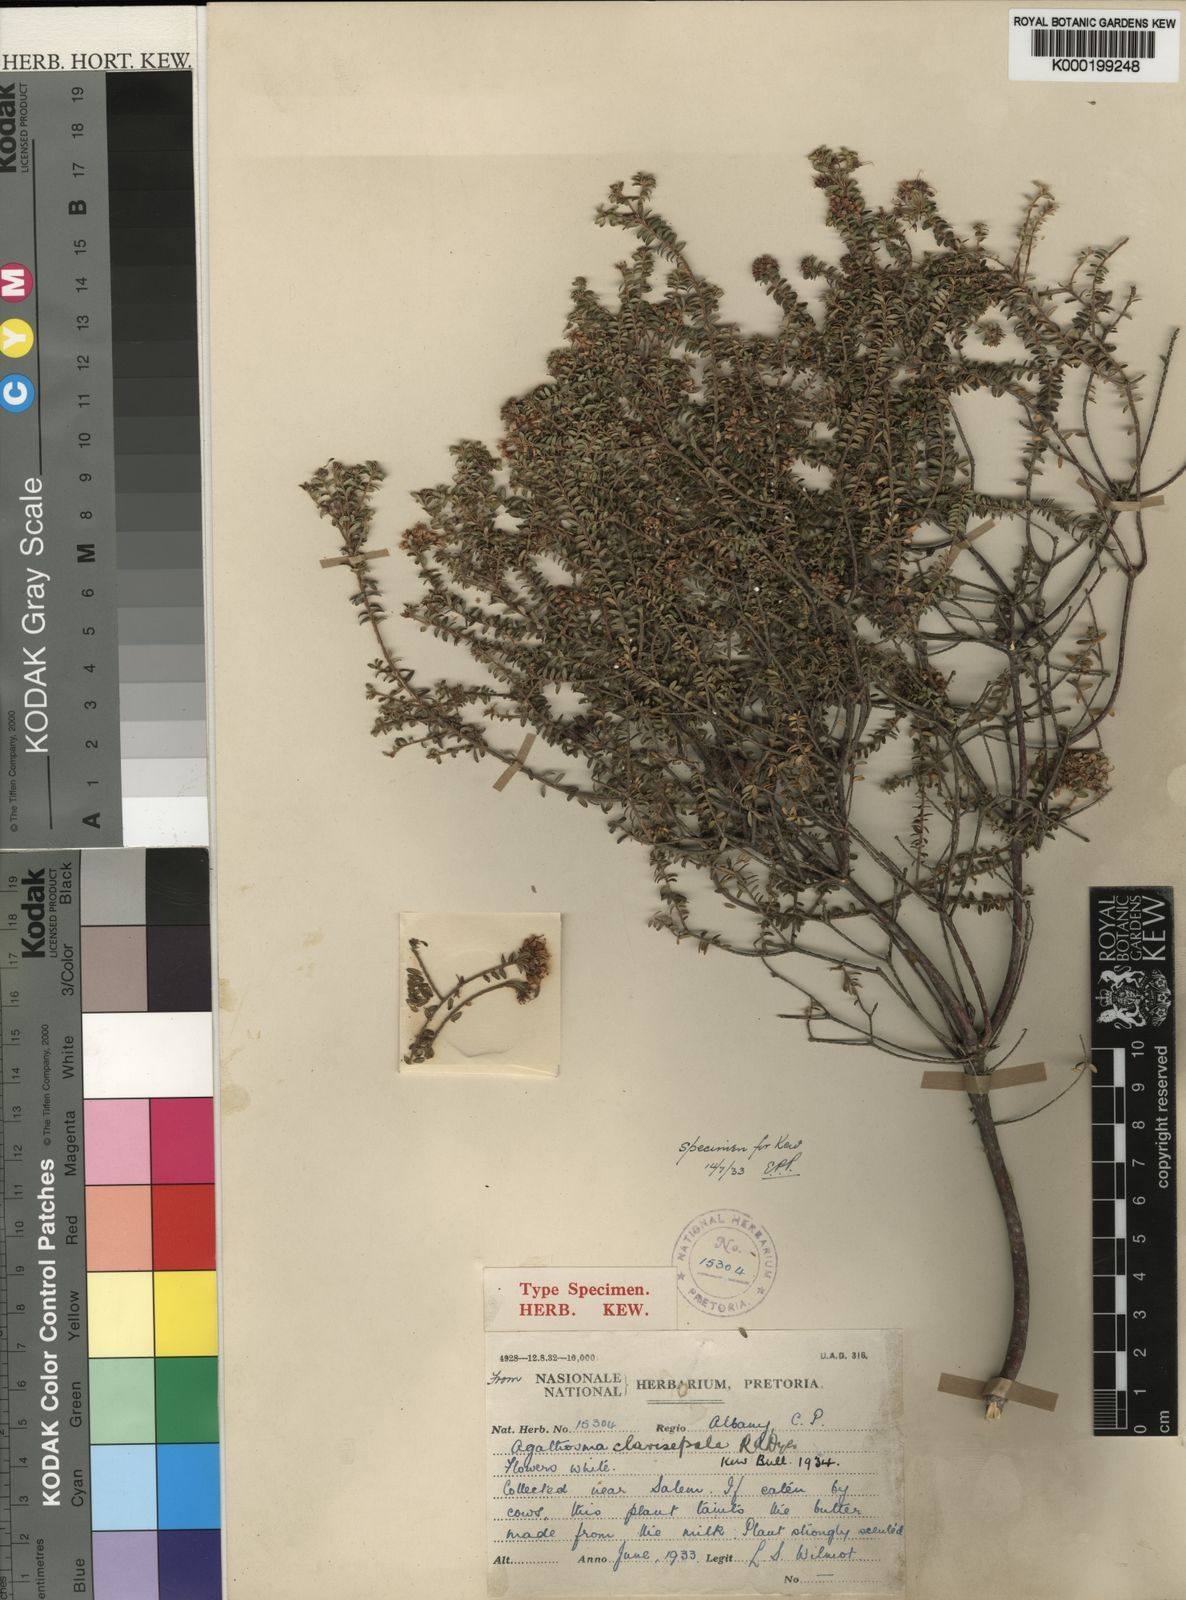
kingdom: Plantae
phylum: Tracheophyta
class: Magnoliopsida
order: Sapindales
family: Rutaceae
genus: Agathosma
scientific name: Agathosma clavisepala
